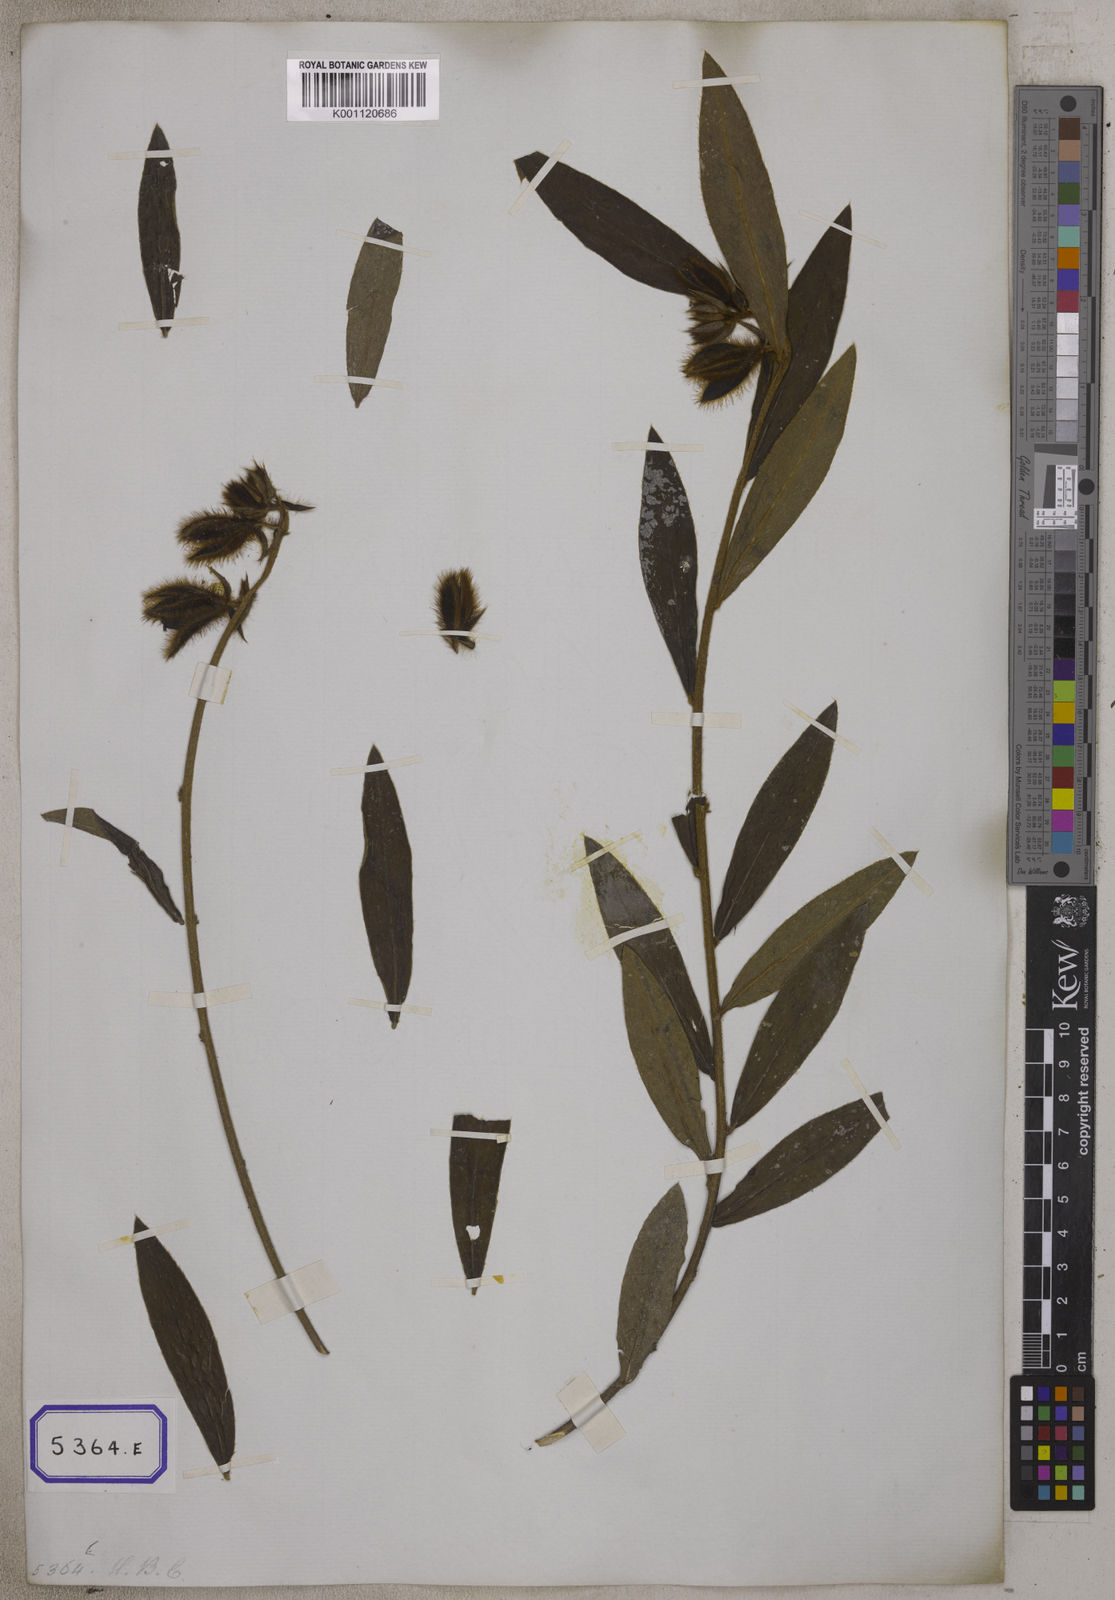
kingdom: Plantae
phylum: Tracheophyta
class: Magnoliopsida
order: Fabales
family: Fabaceae
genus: Crotalaria
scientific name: Crotalaria calycina
